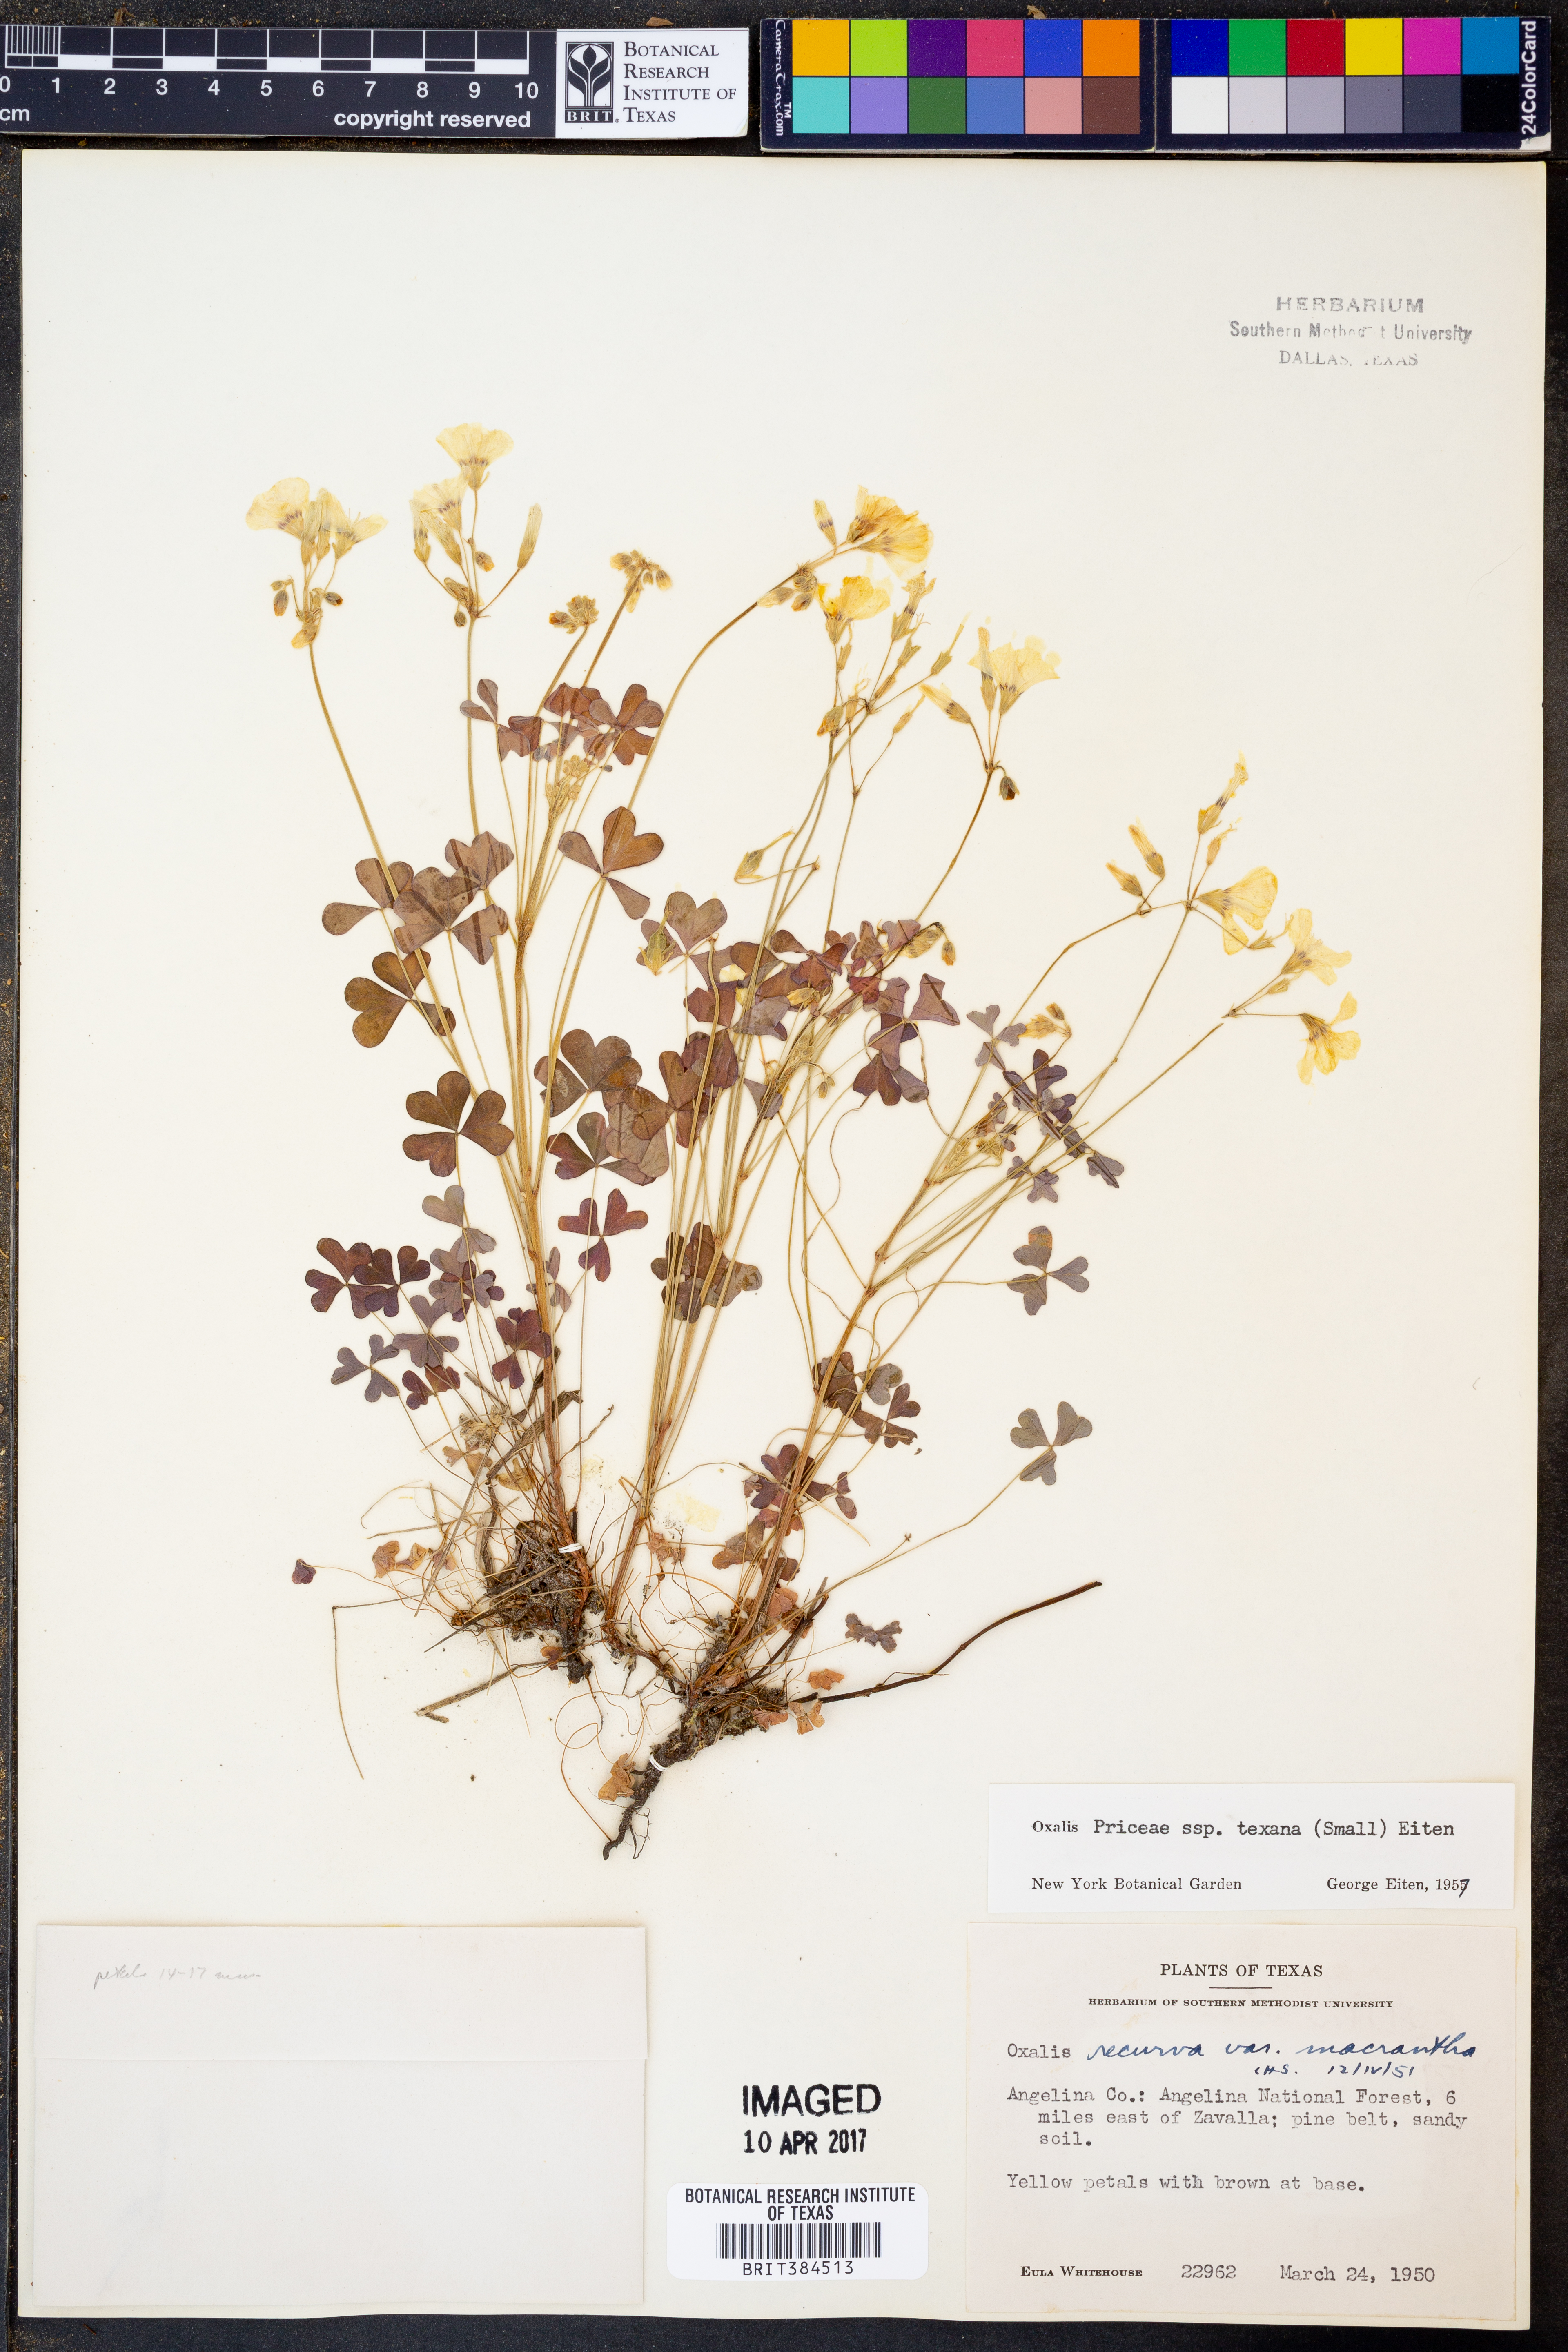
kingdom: Plantae
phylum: Tracheophyta
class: Magnoliopsida
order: Oxalidales
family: Oxalidaceae
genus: Oxalis
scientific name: Oxalis texana
